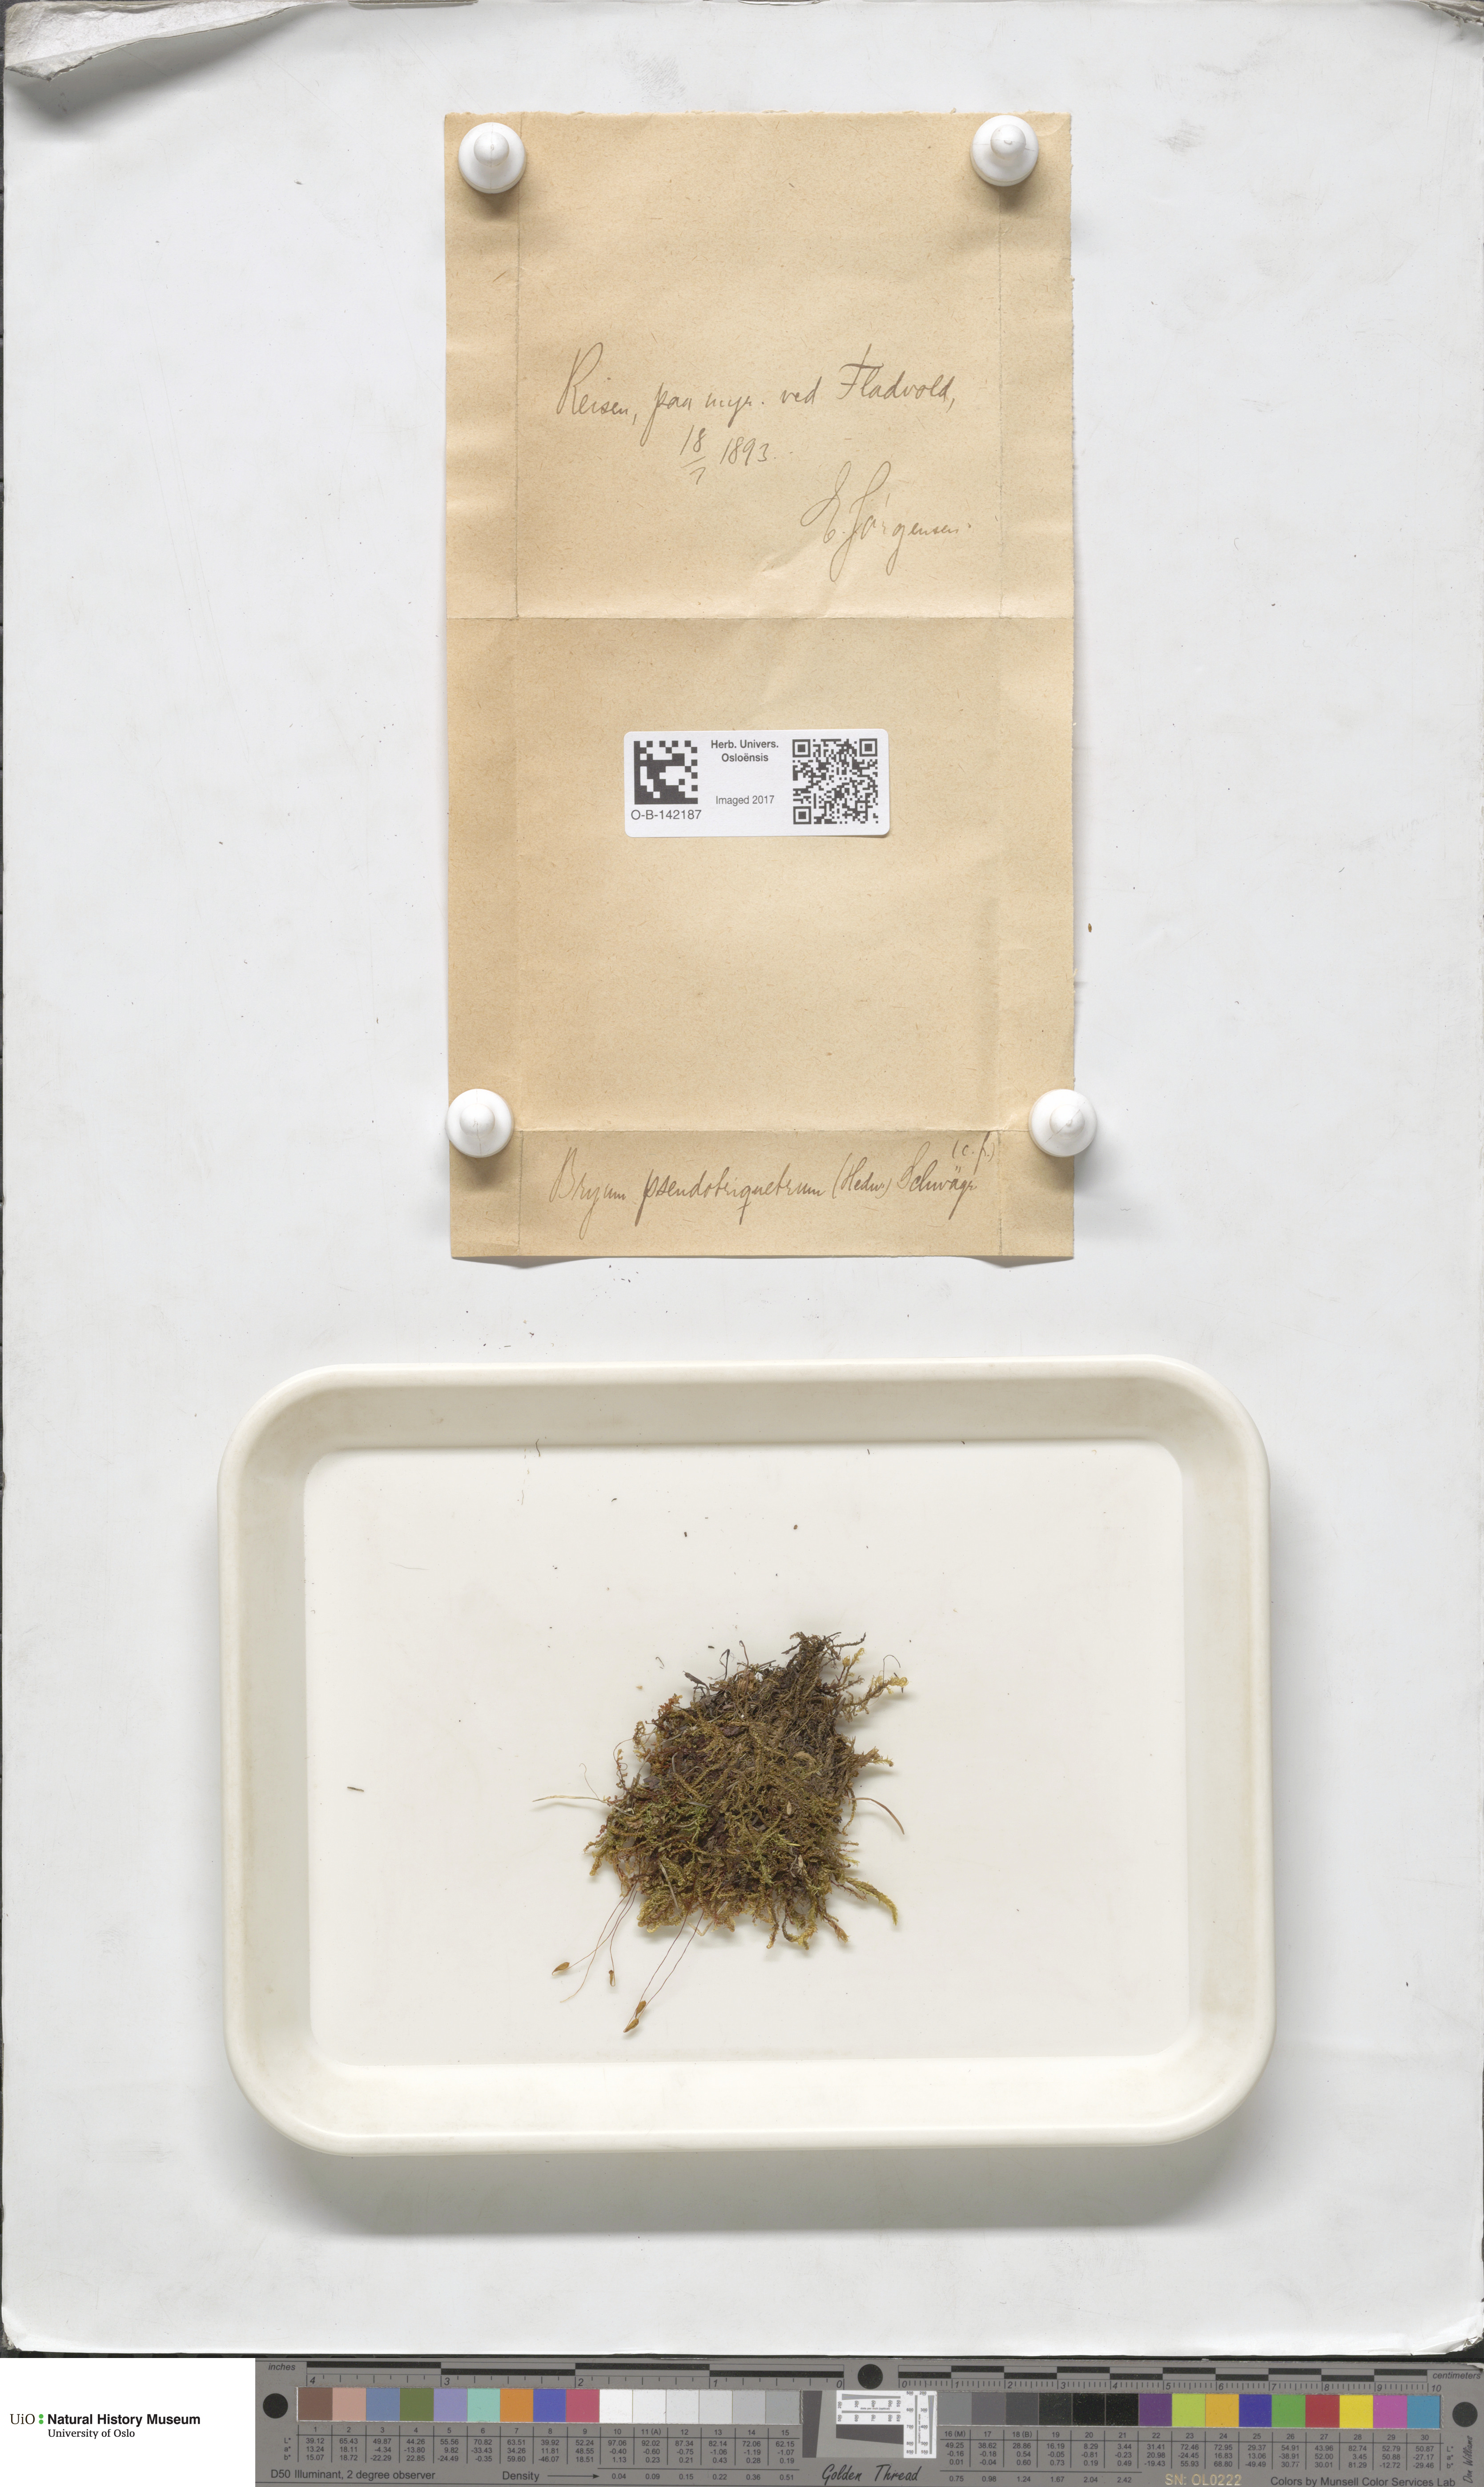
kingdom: Plantae
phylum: Bryophyta
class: Bryopsida
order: Bryales
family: Bryaceae
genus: Ptychostomum
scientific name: Ptychostomum pseudotriquetrum
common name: Long-leaved thread moss
